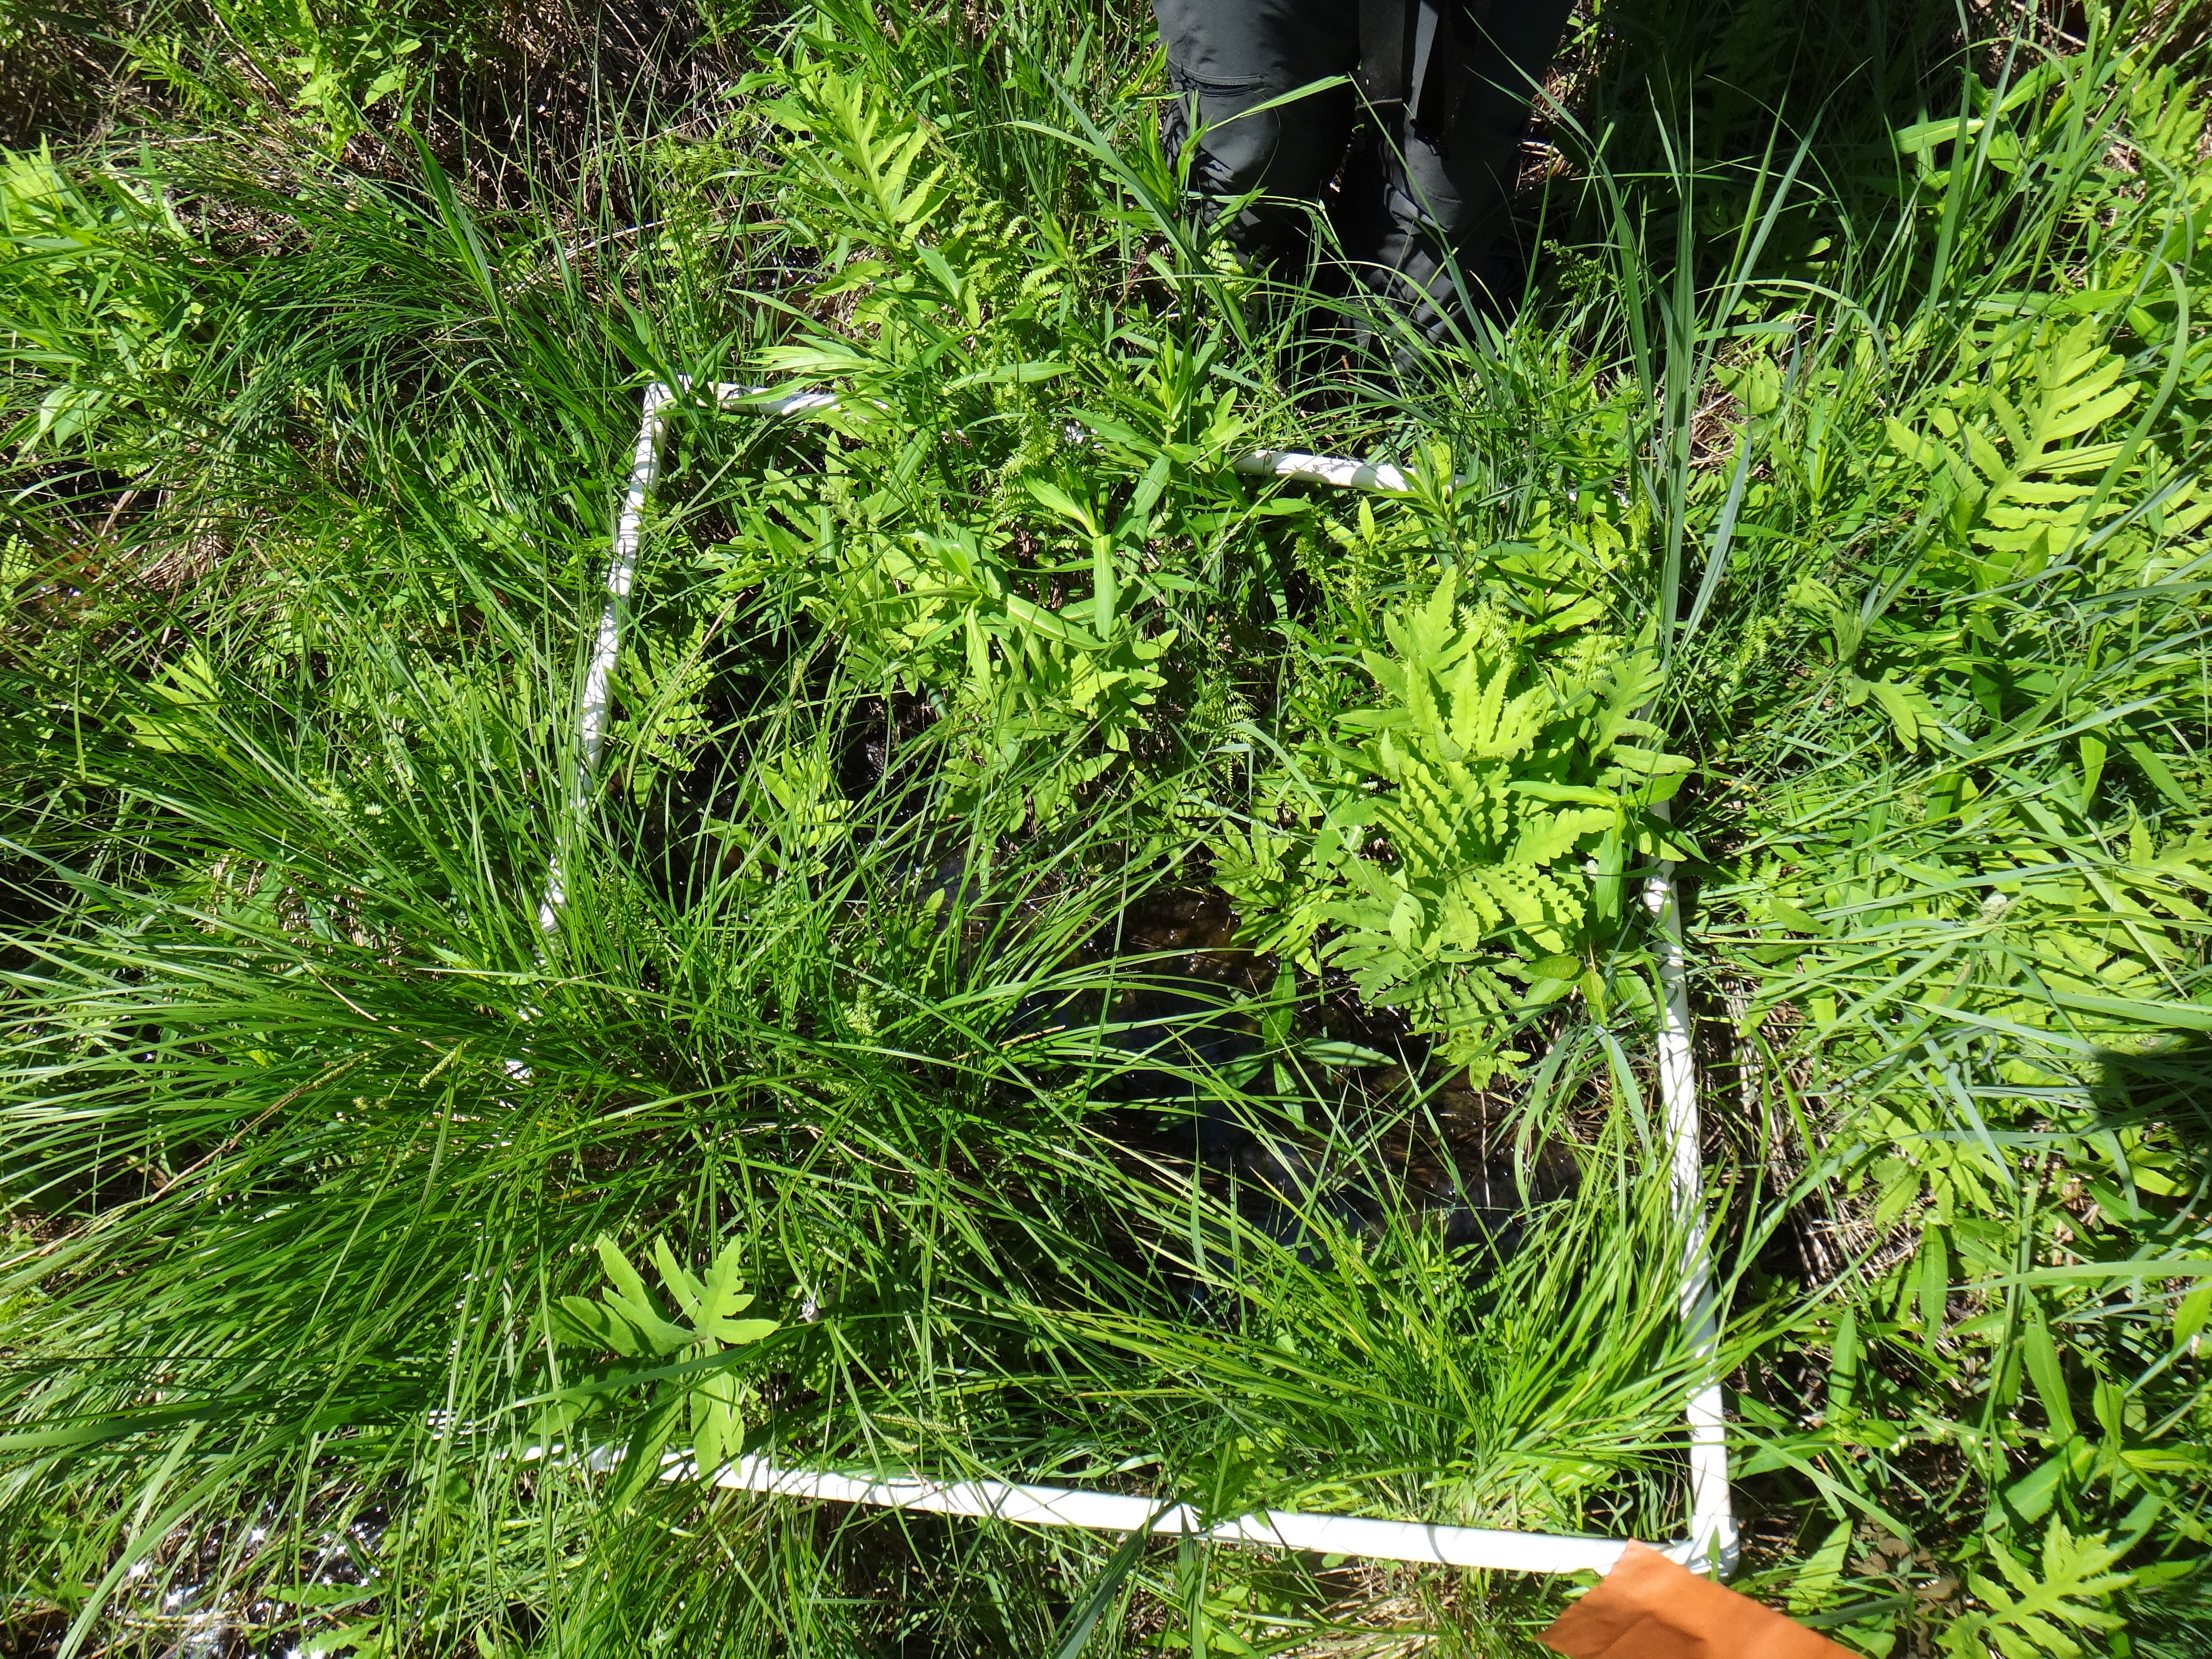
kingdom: Plantae
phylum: Tracheophyta
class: Magnoliopsida
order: Myrtales
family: Lythraceae
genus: Lythrum
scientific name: Lythrum salicaria
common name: Purple loosestrife
